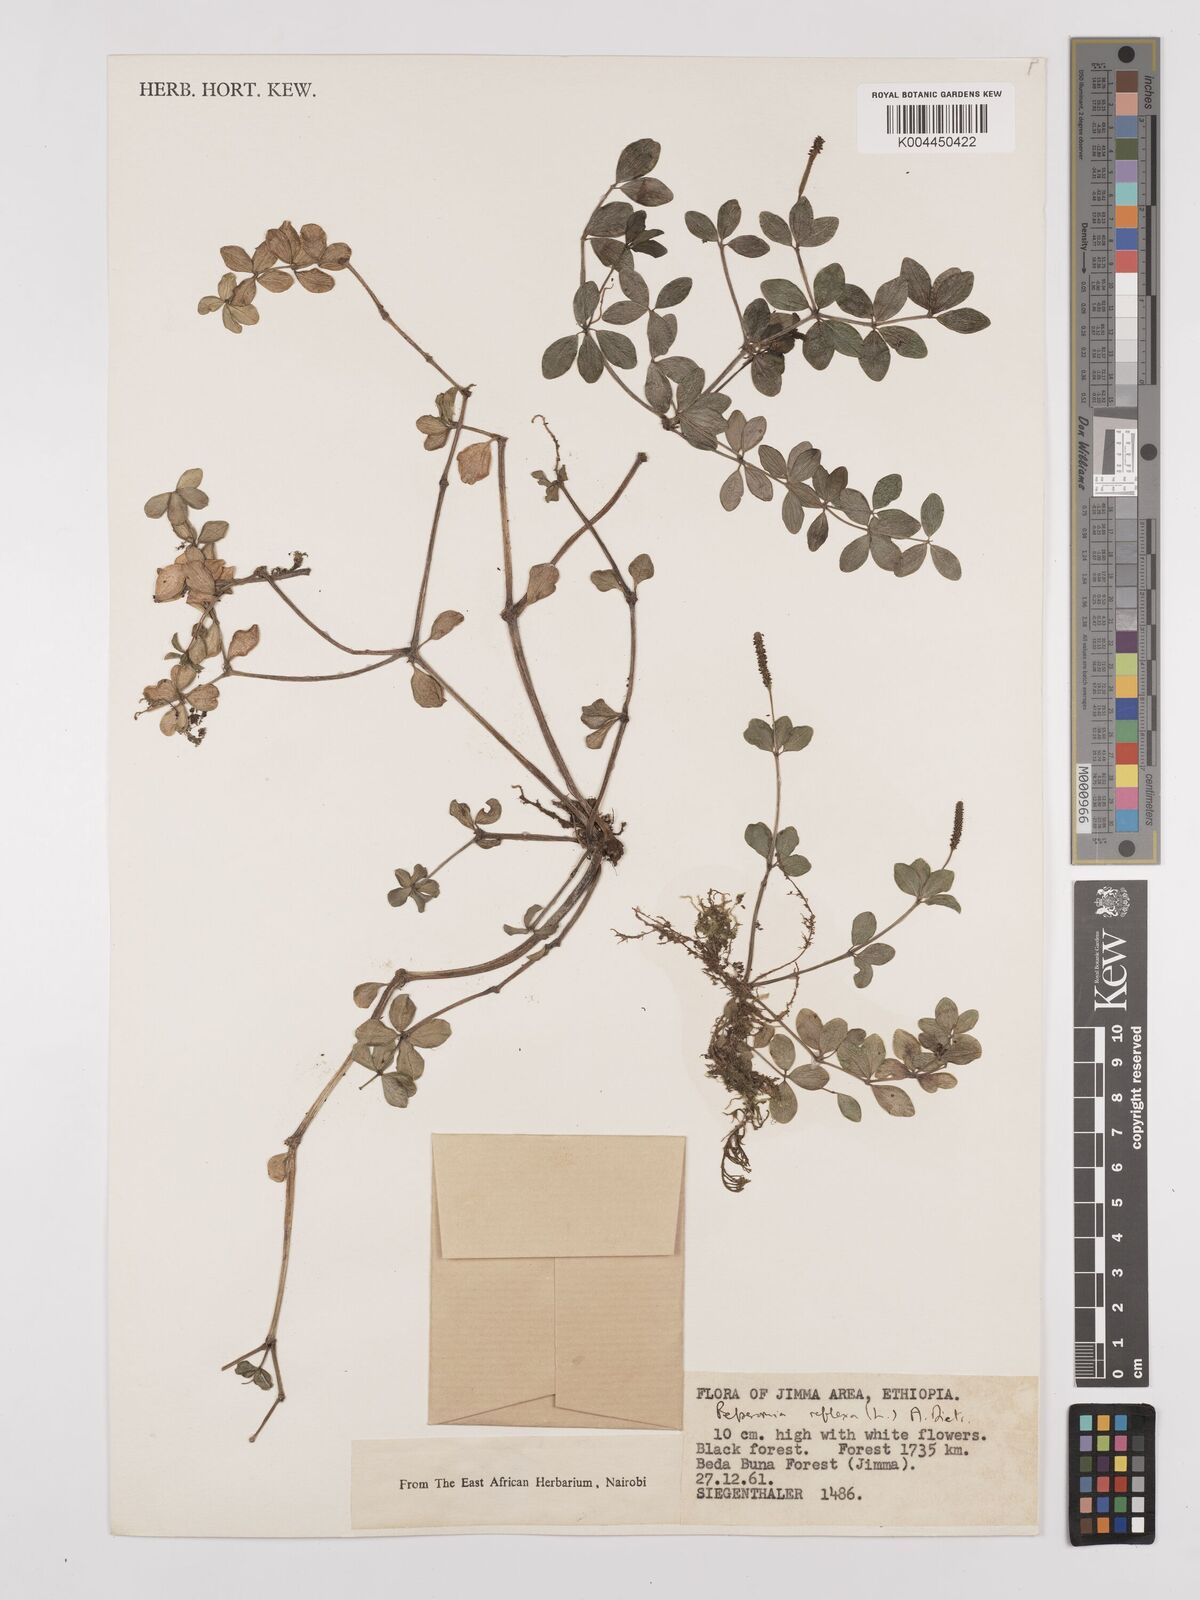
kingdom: Plantae
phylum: Tracheophyta
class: Magnoliopsida
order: Piperales
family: Piperaceae
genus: Peperomia
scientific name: Peperomia tetraphylla
